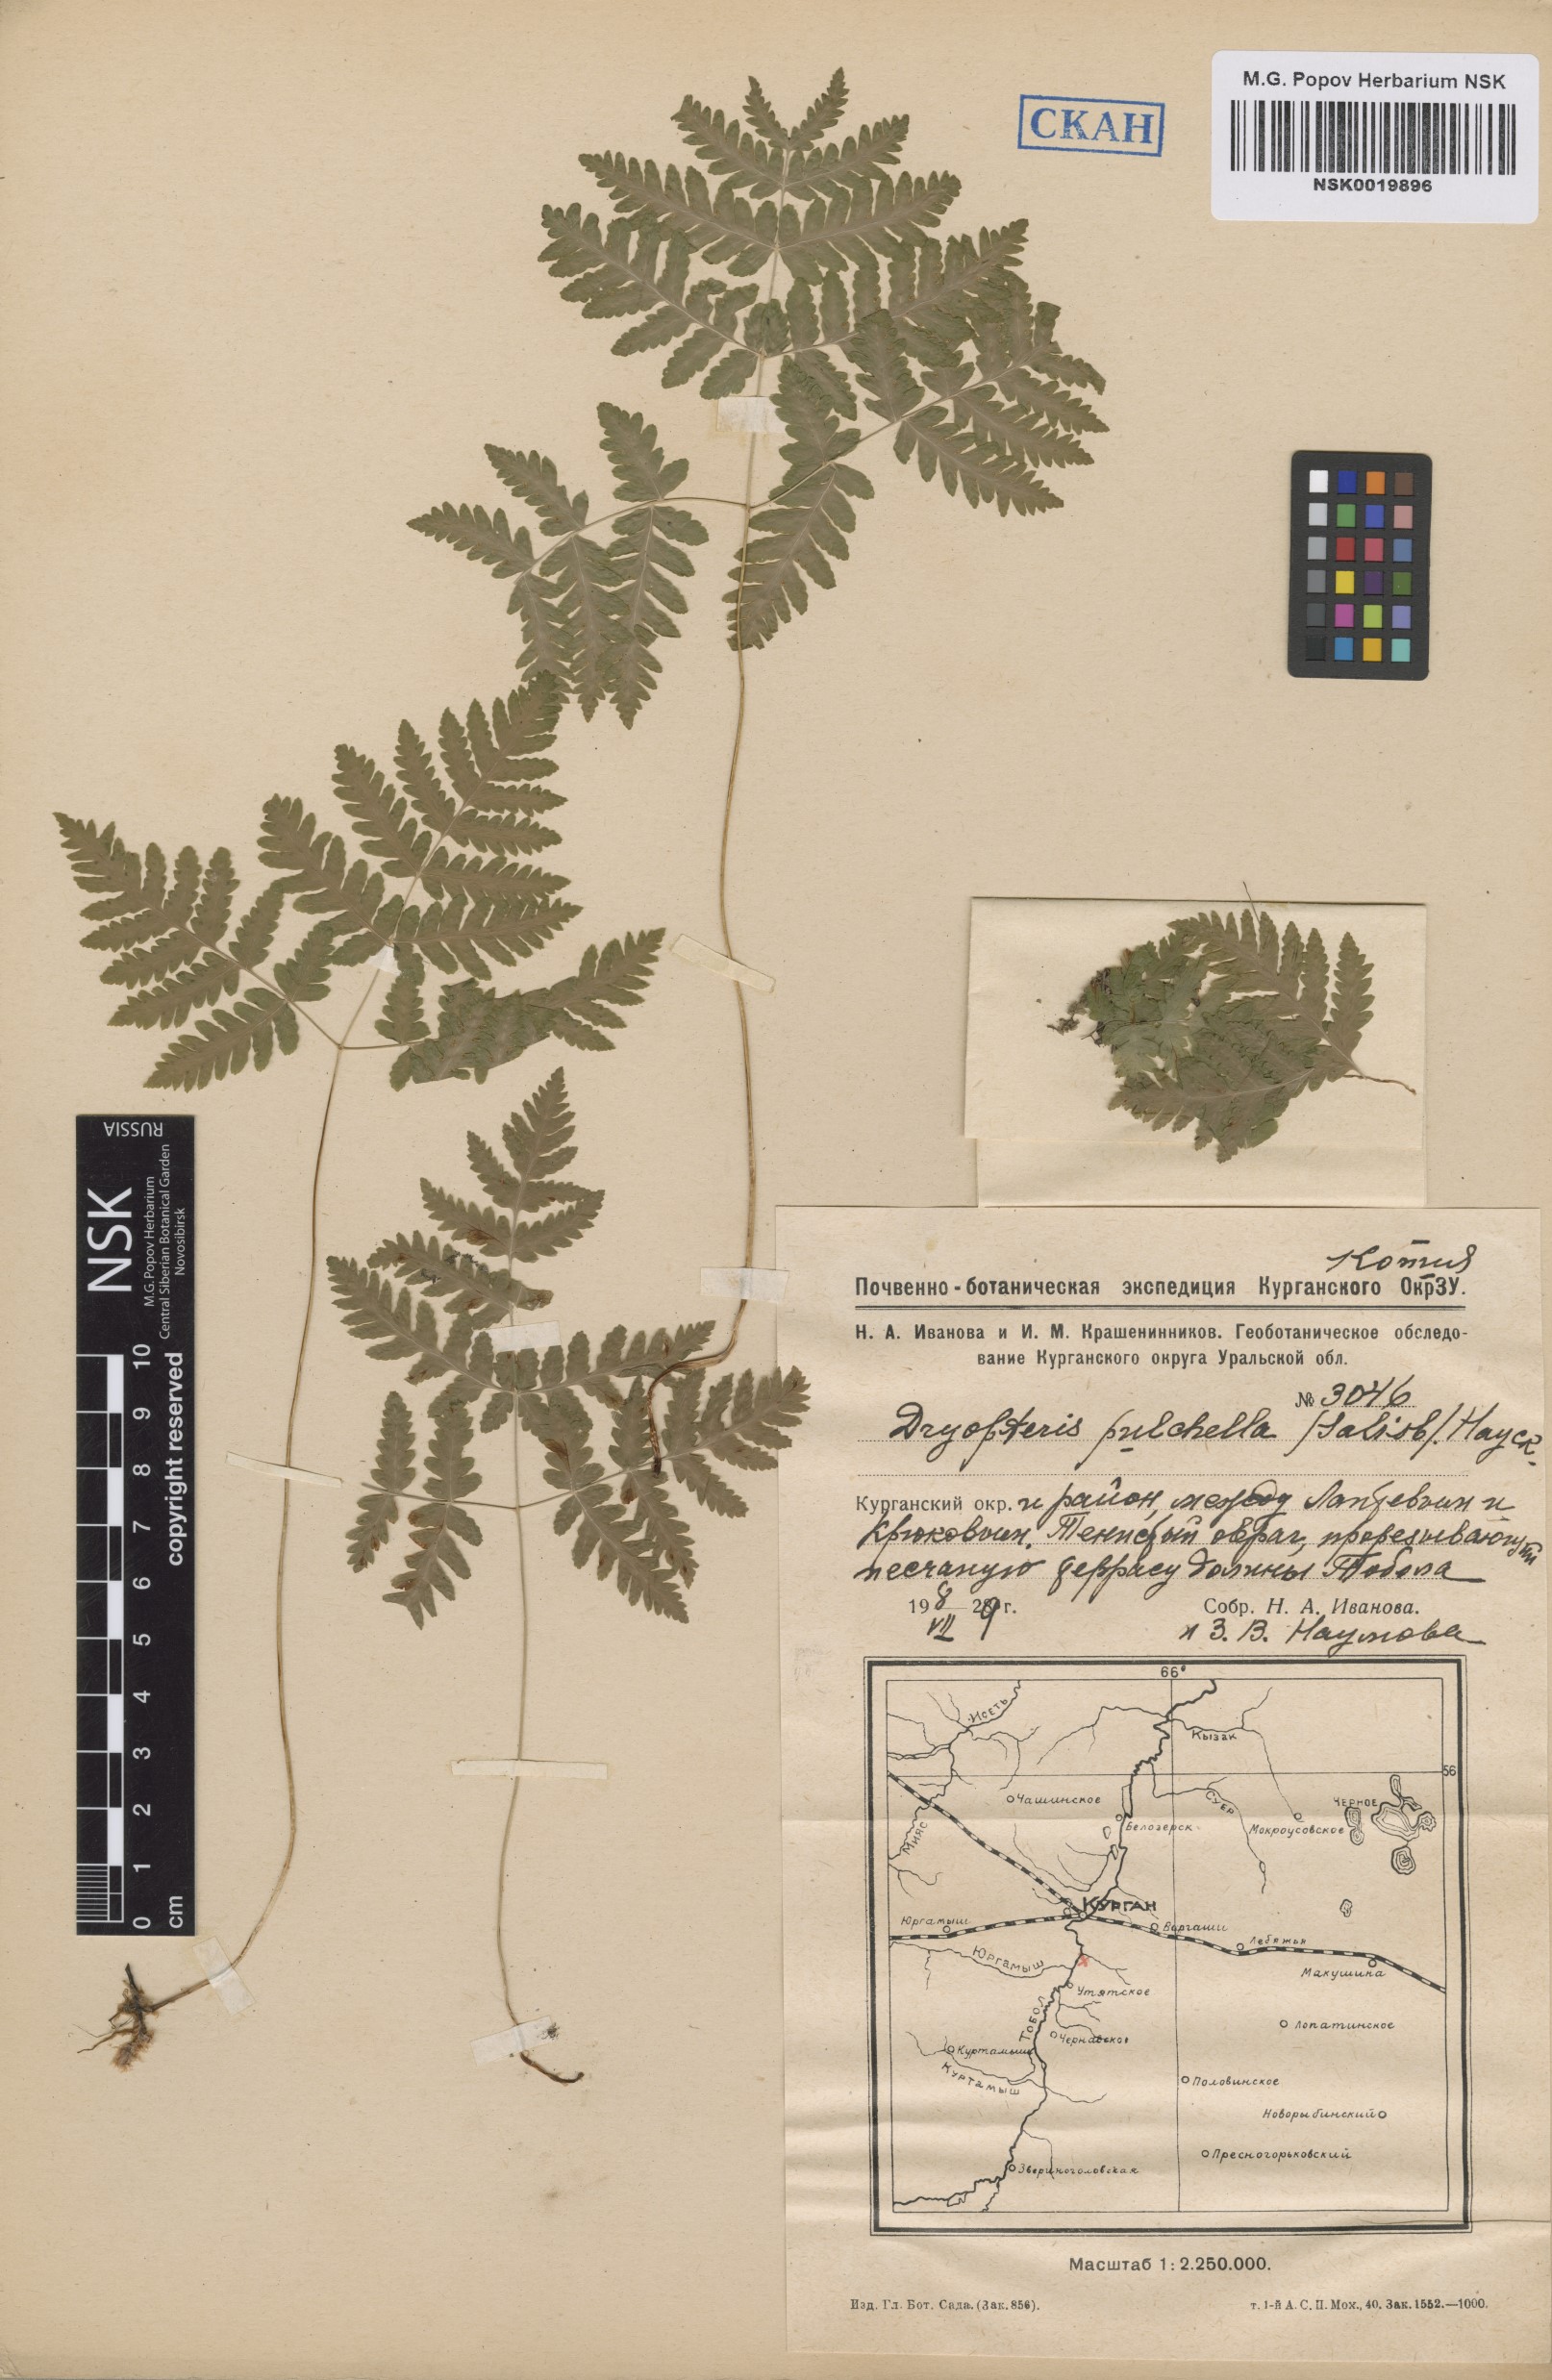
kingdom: Plantae
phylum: Tracheophyta
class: Polypodiopsida
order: Polypodiales
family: Cystopteridaceae
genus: Gymnocarpium
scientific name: Gymnocarpium dryopteris
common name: Oak fern
